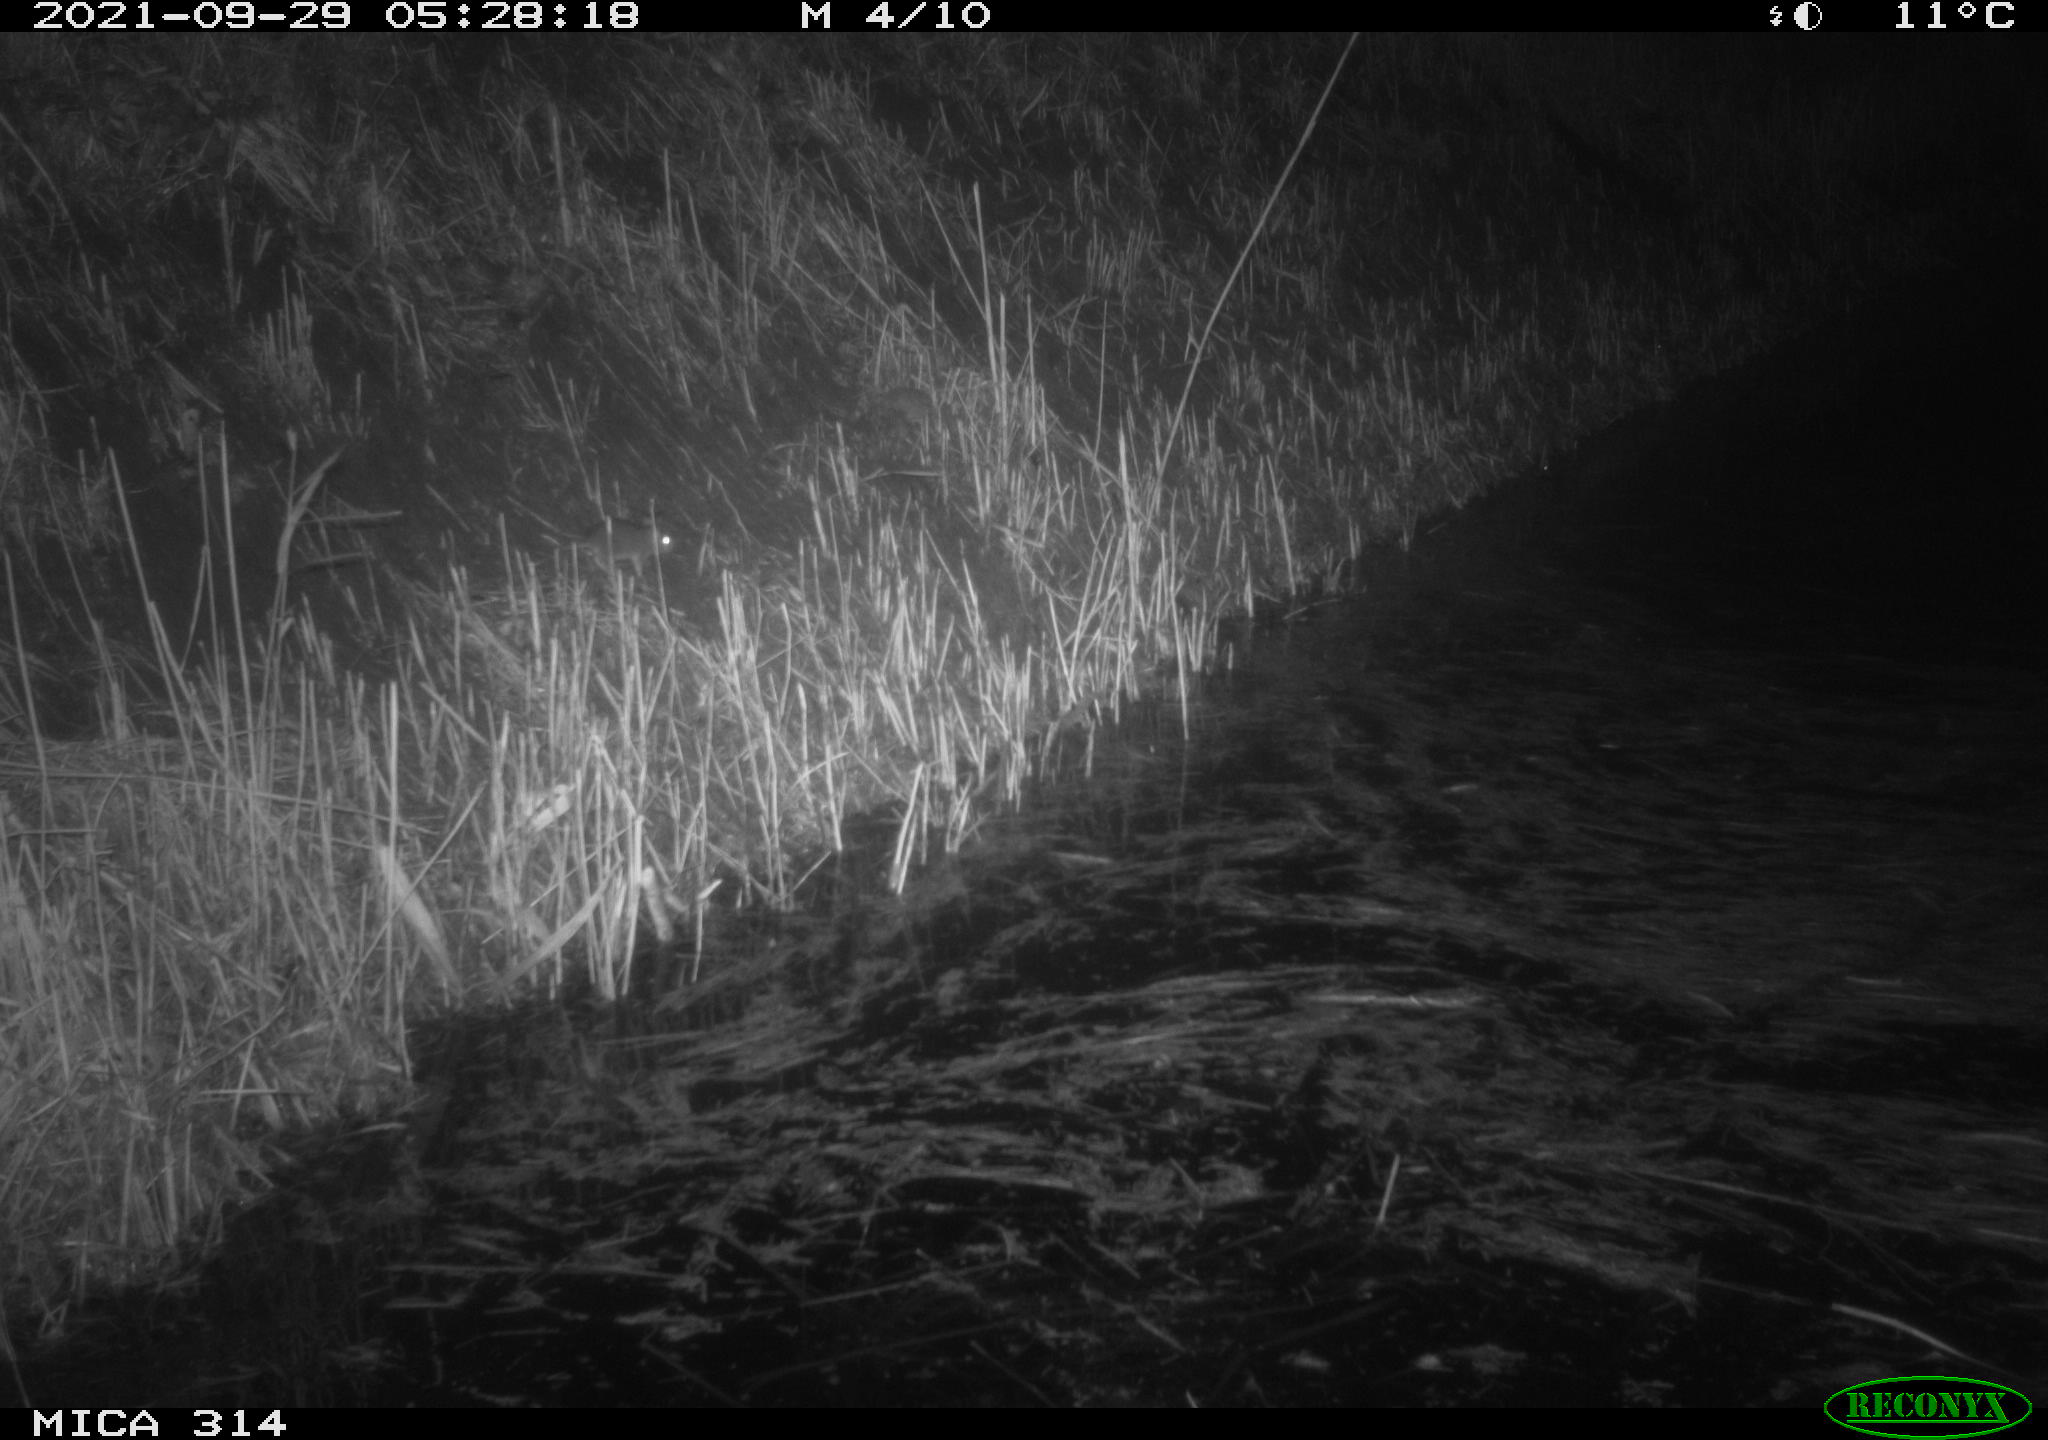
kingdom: Animalia
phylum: Chordata
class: Mammalia
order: Rodentia
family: Muridae
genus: Rattus
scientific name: Rattus norvegicus
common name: Brown rat
